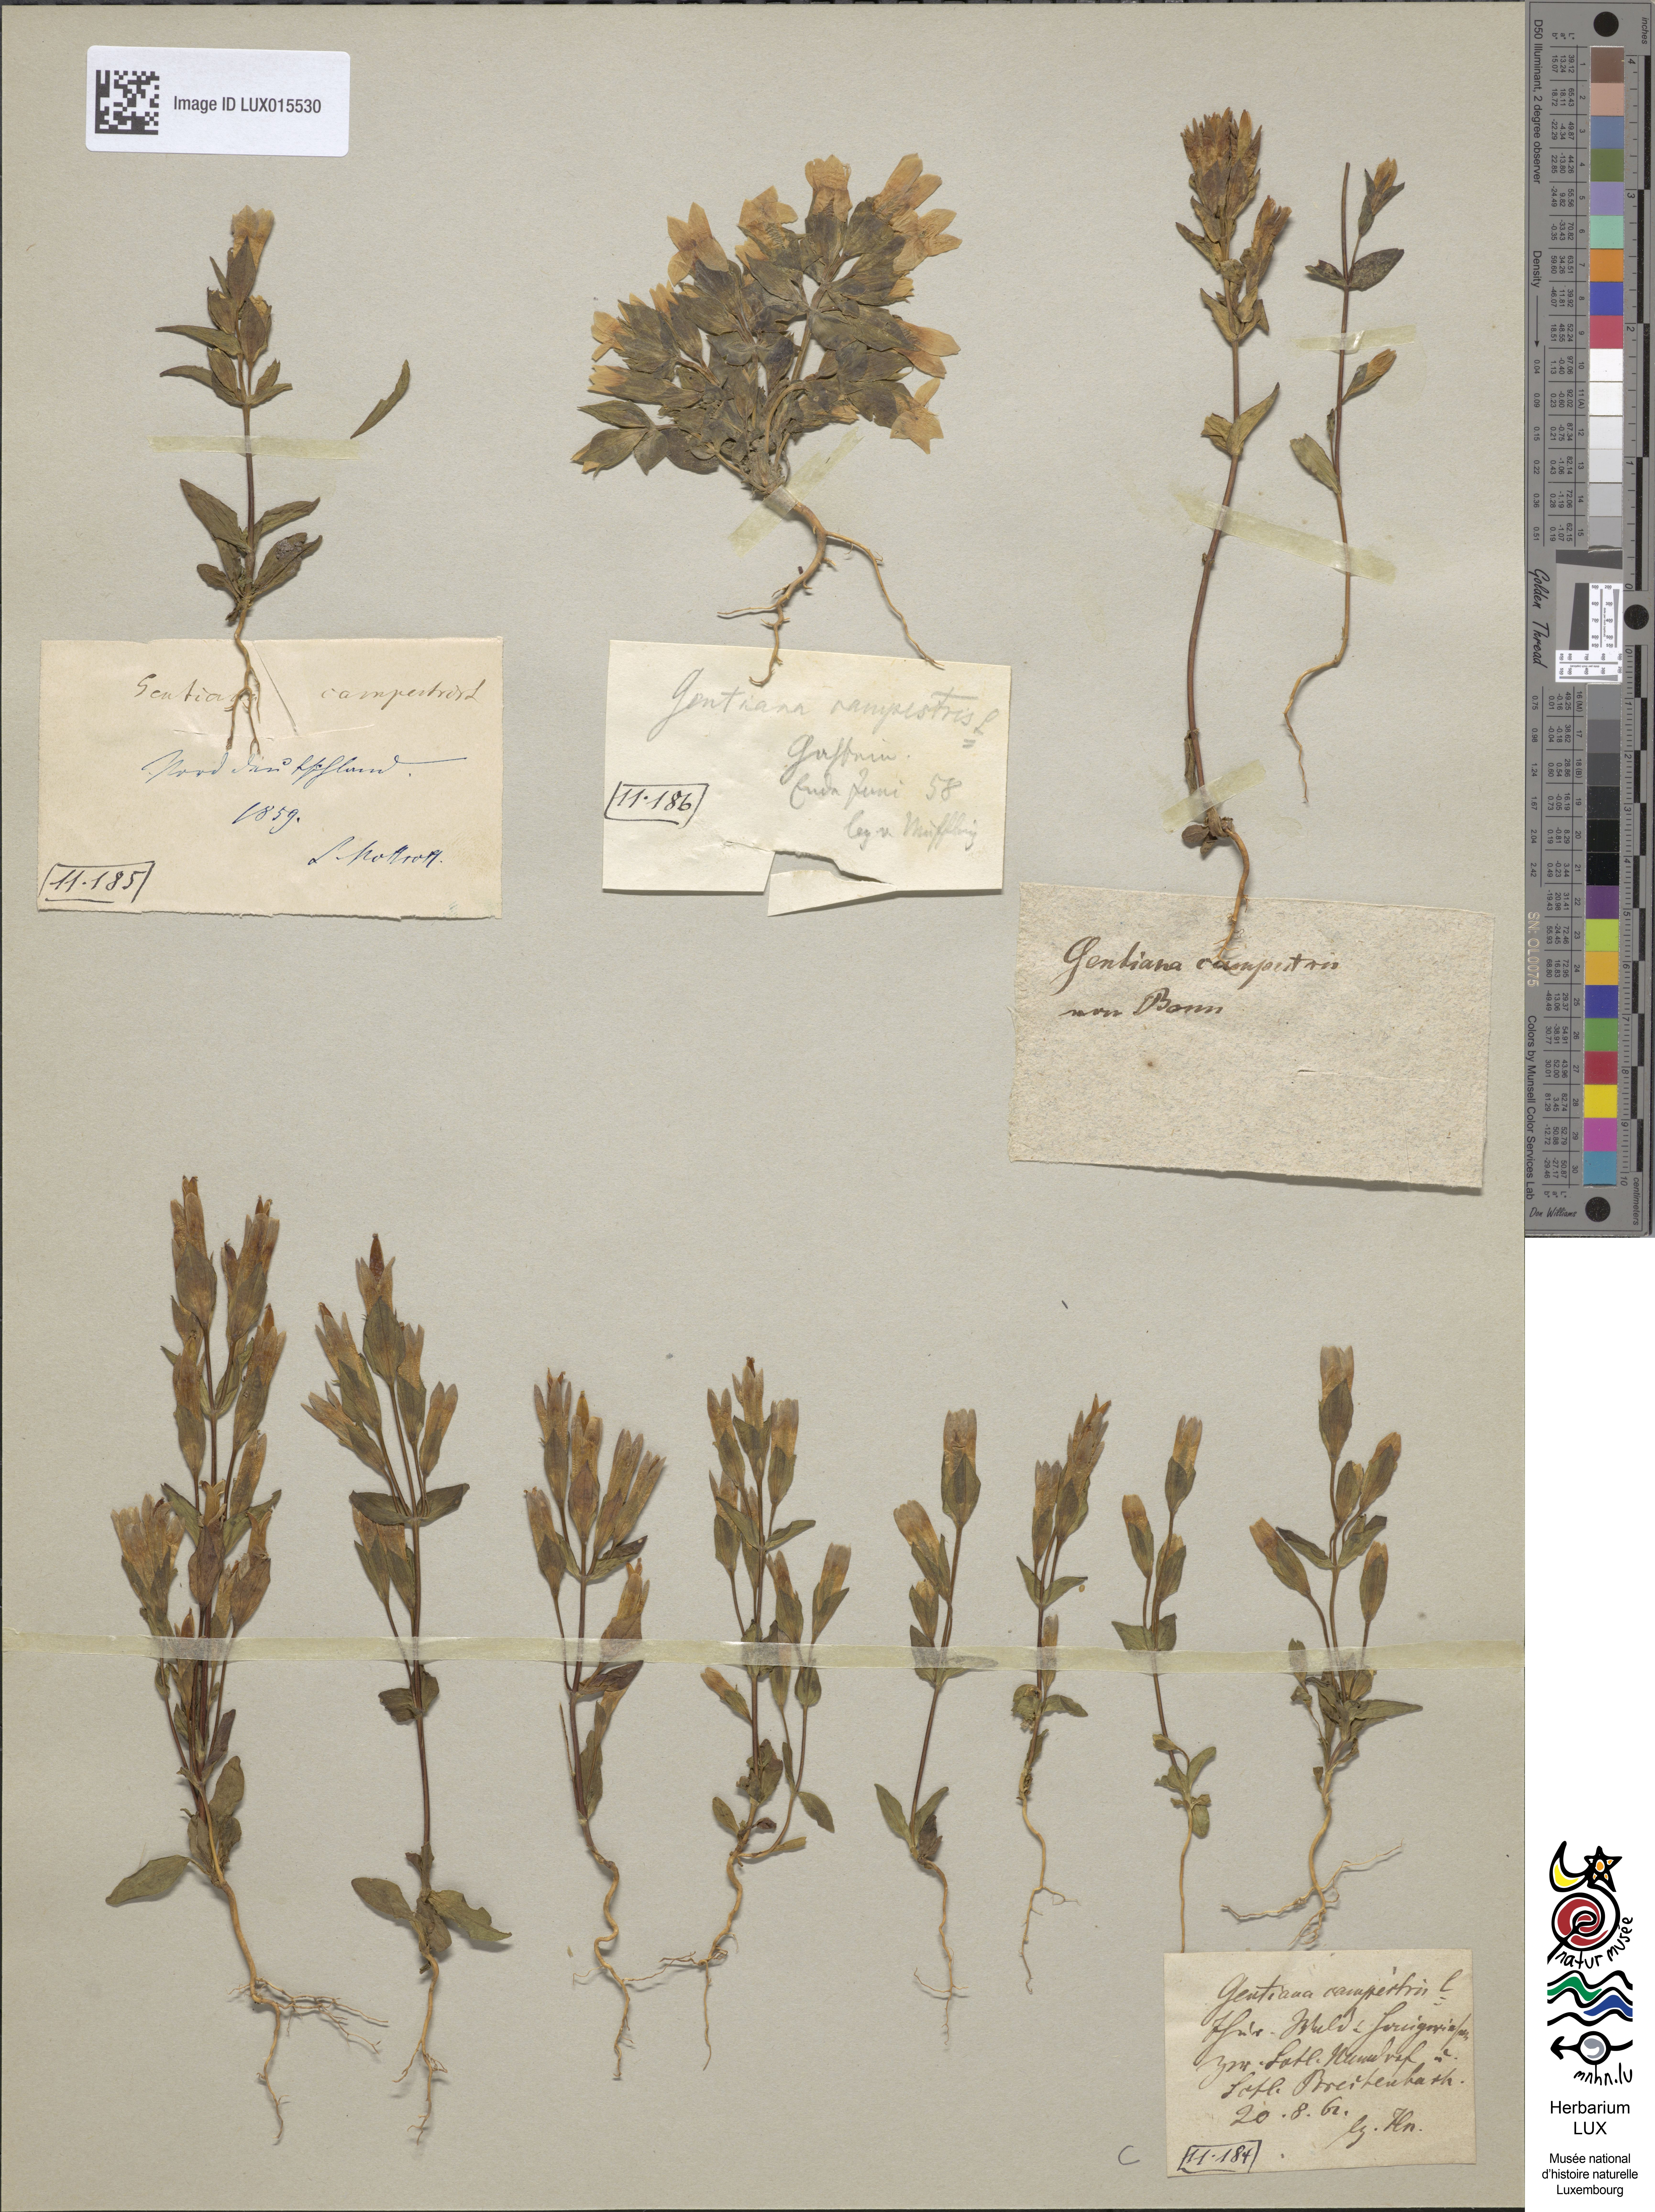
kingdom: Plantae
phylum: Tracheophyta
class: Magnoliopsida
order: Gentianales
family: Gentianaceae
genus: Gentianella
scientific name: Gentianella campestris
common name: Field gentian
